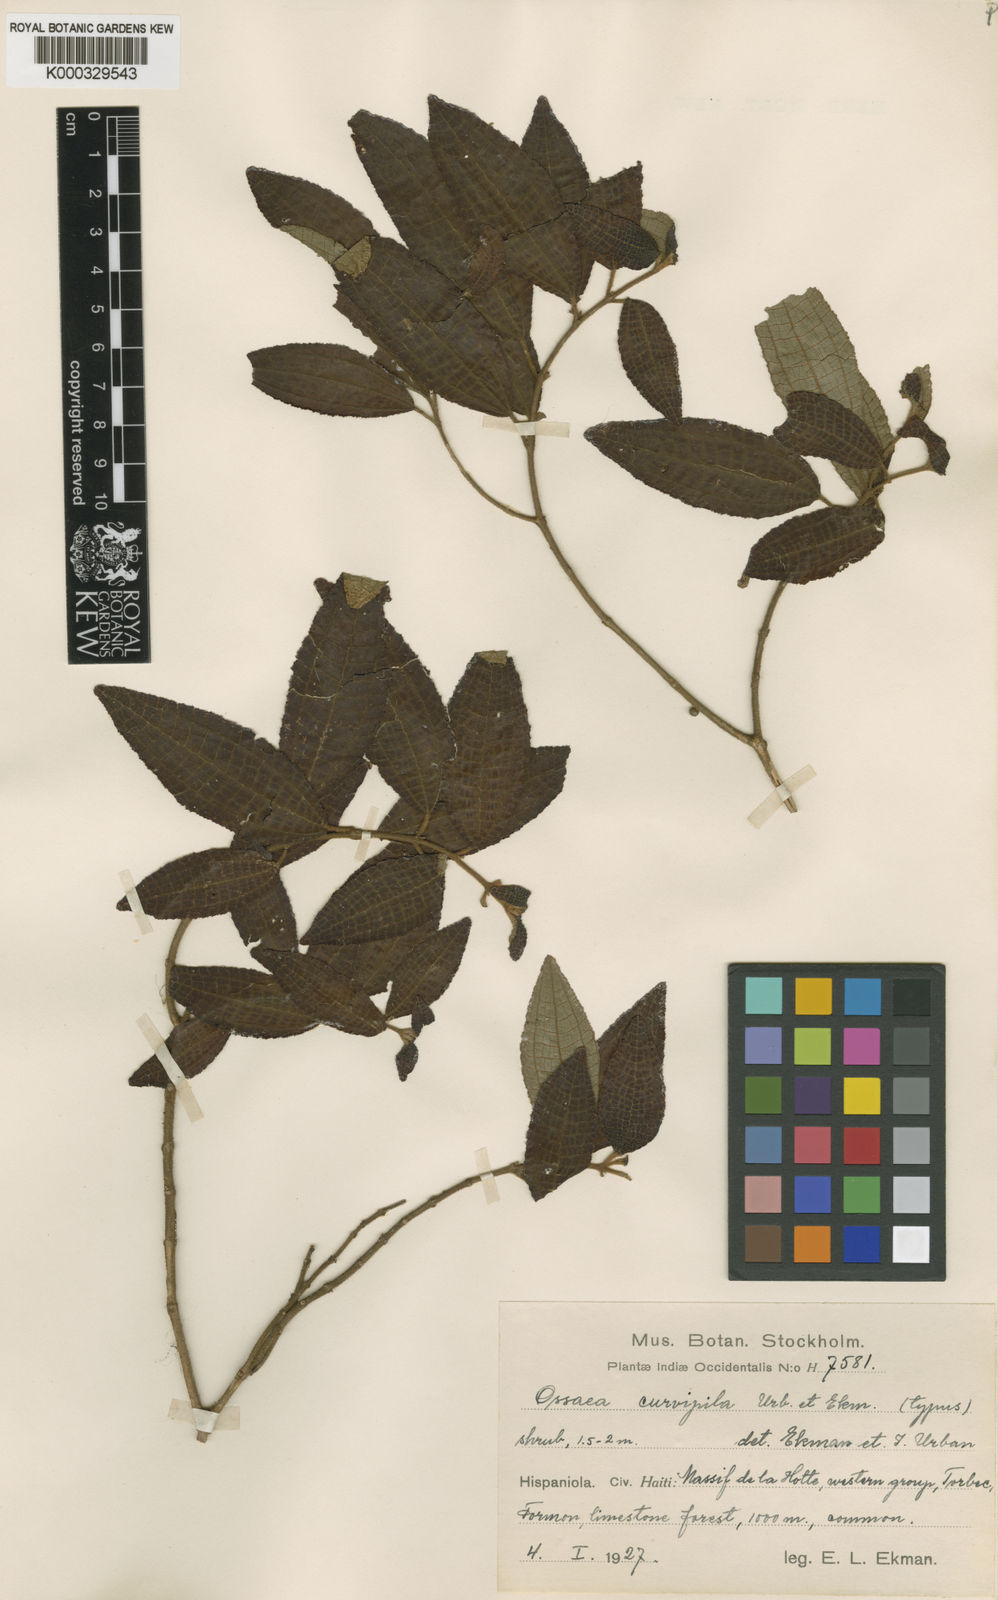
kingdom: Plantae
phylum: Tracheophyta
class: Magnoliopsida
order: Myrtales
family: Melastomataceae
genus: Miconia
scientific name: Miconia curvipila
